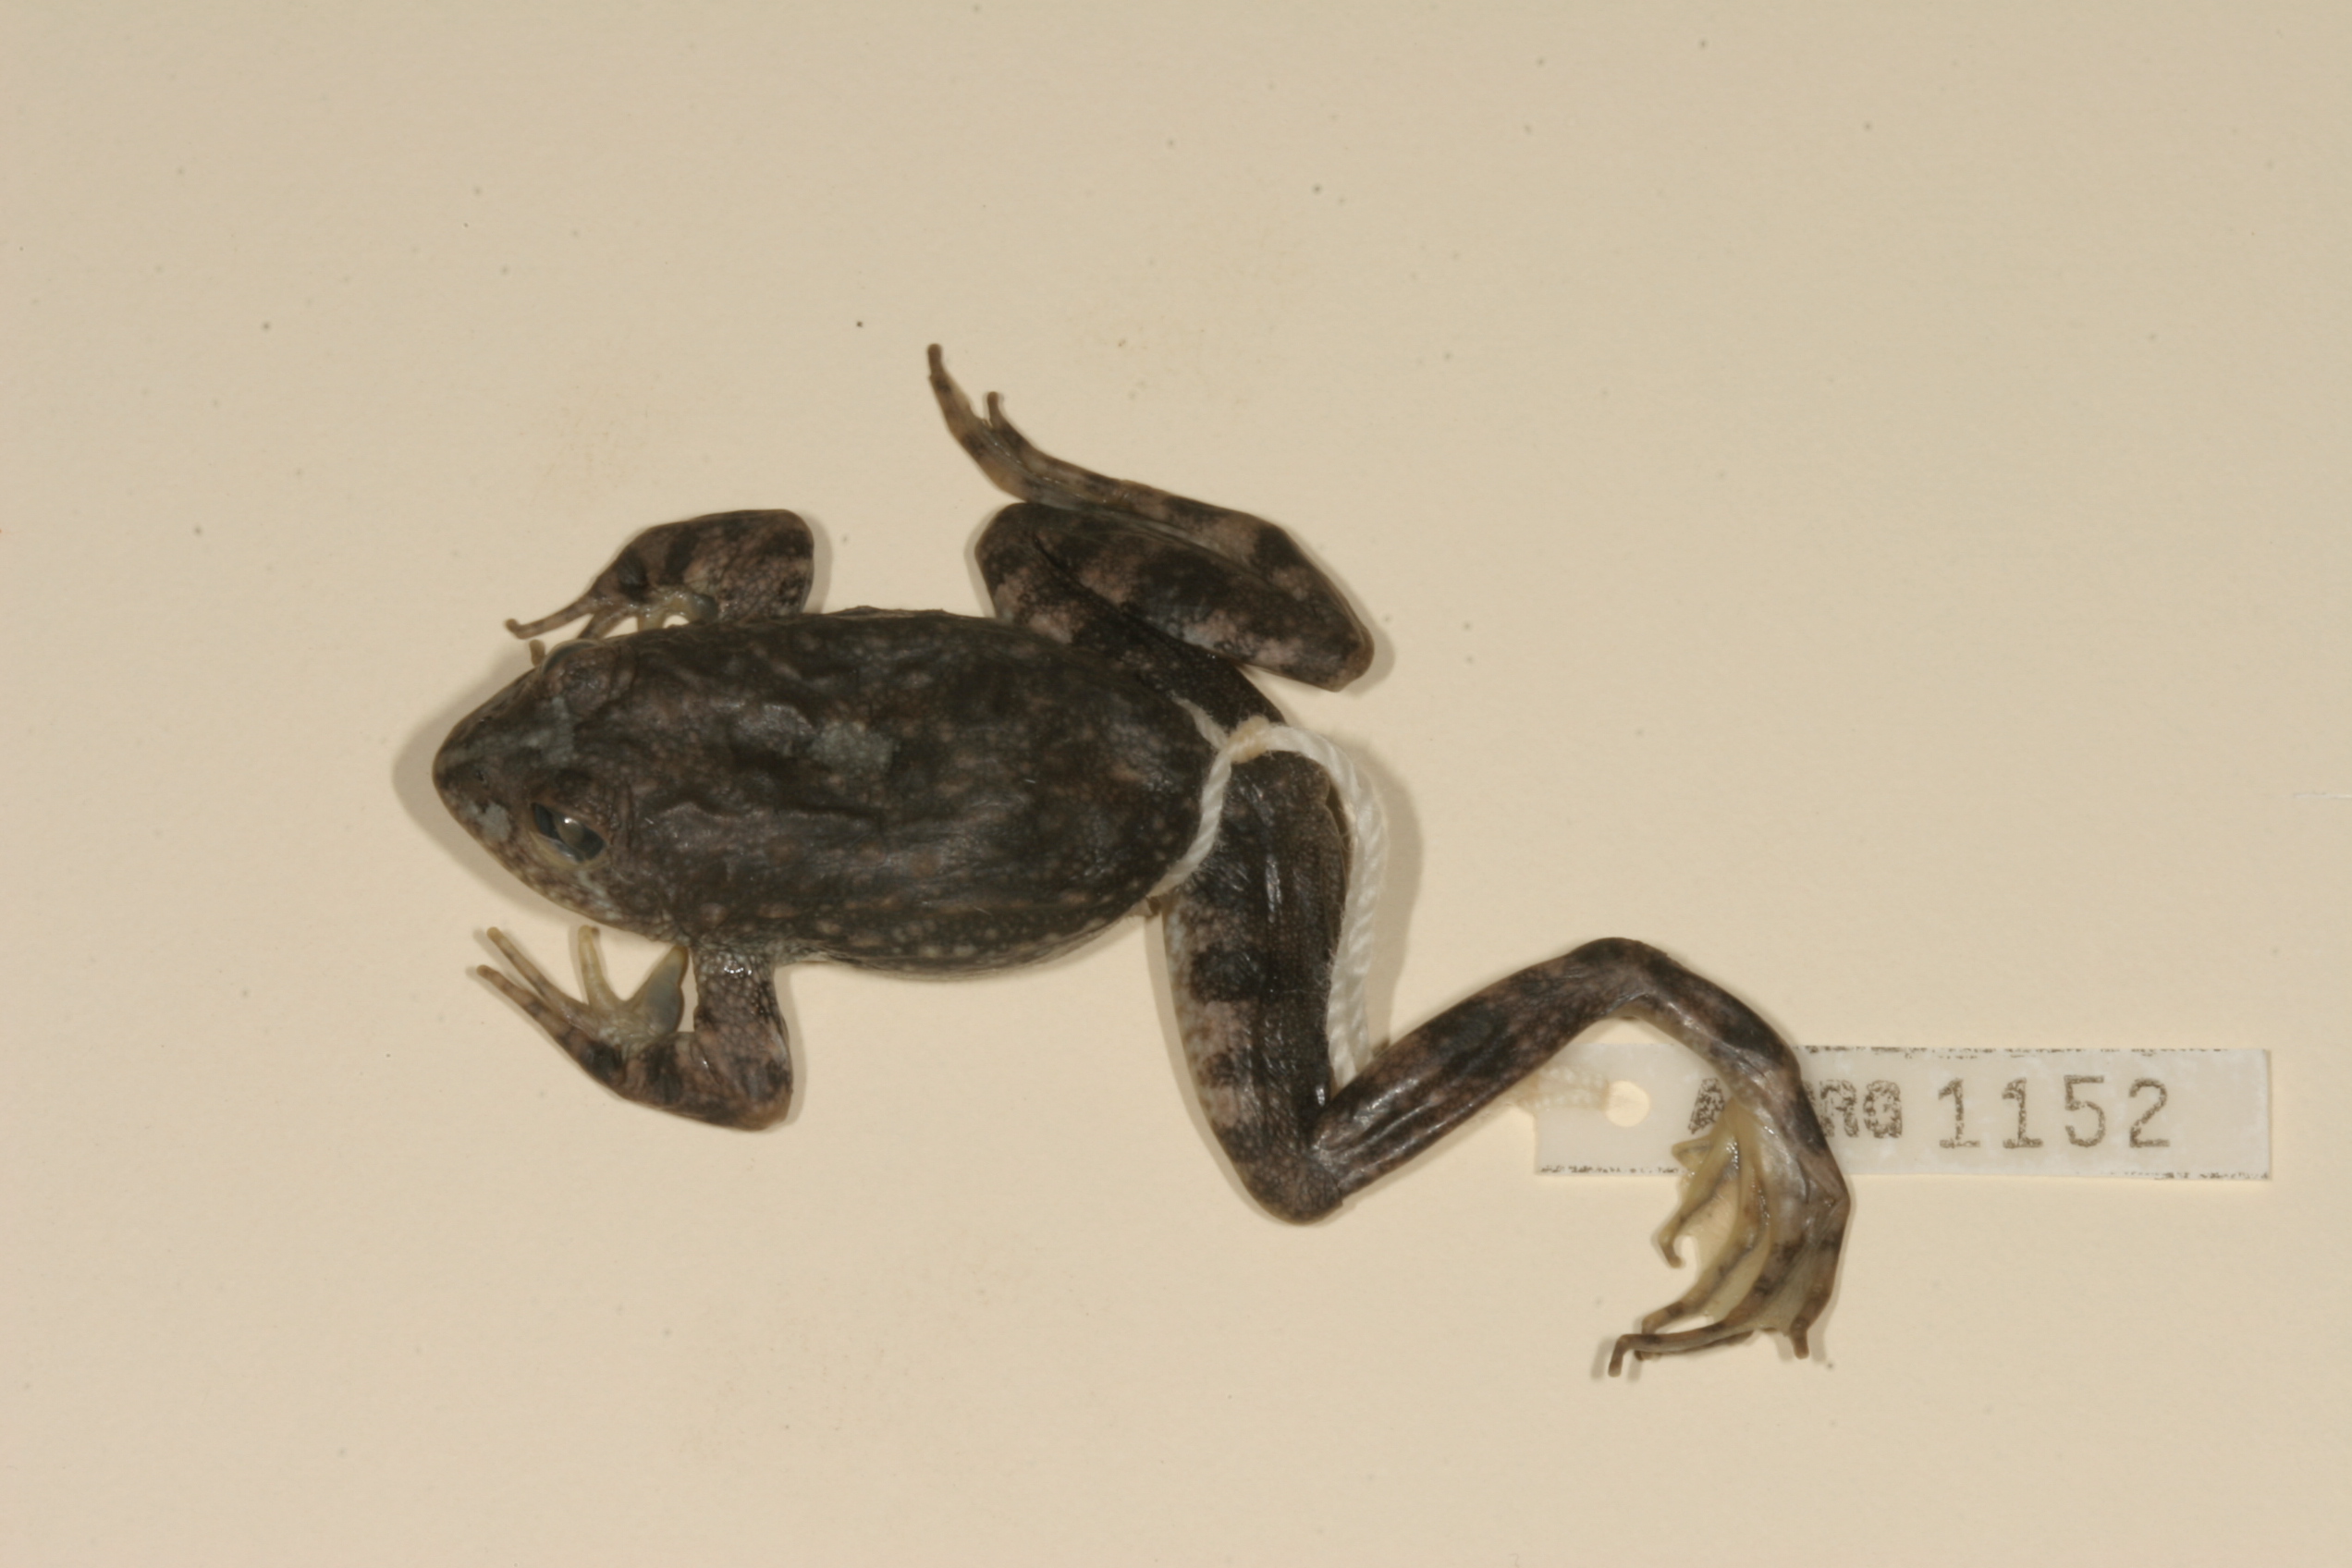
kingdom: Animalia
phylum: Chordata
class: Amphibia
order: Anura
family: Pyxicephalidae
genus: Amietia
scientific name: Amietia vertebralis
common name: Drakensberg stream frog
